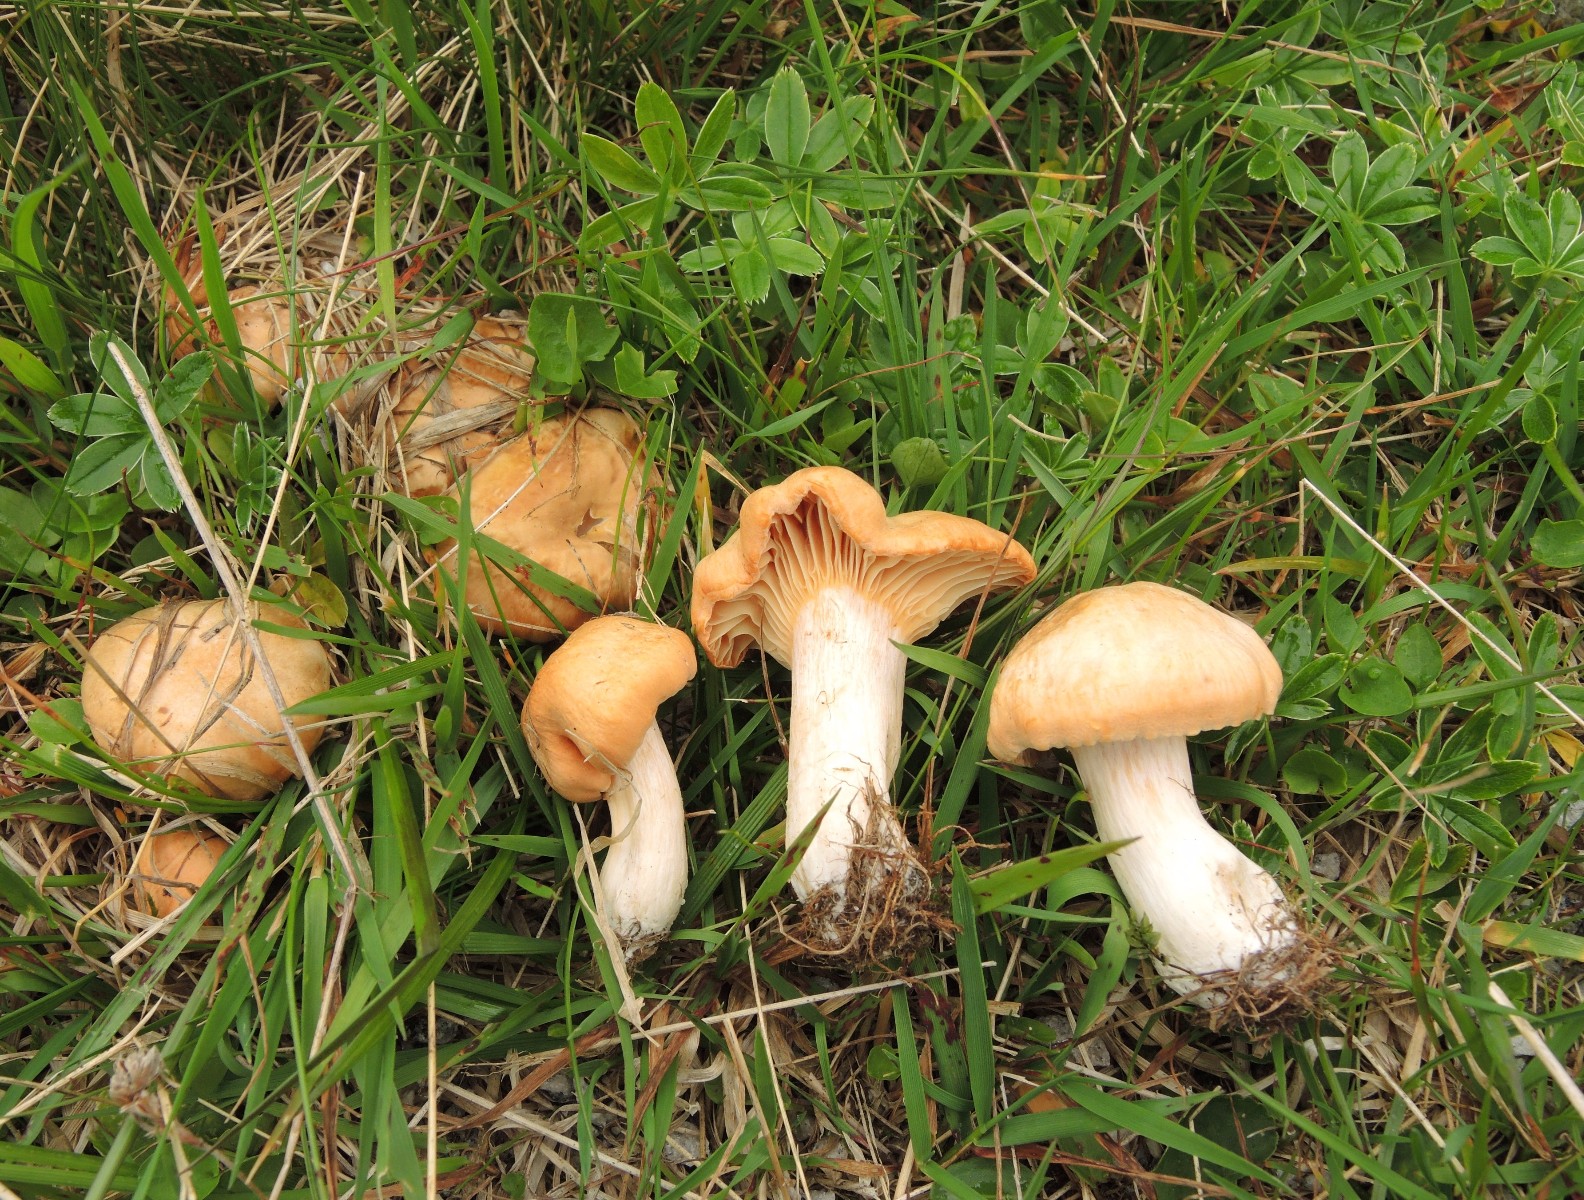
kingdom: Fungi
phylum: Basidiomycota
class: Agaricomycetes
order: Agaricales
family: Hygrophoraceae
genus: Cuphophyllus
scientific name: Cuphophyllus pratensis
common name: eng-vokshat
